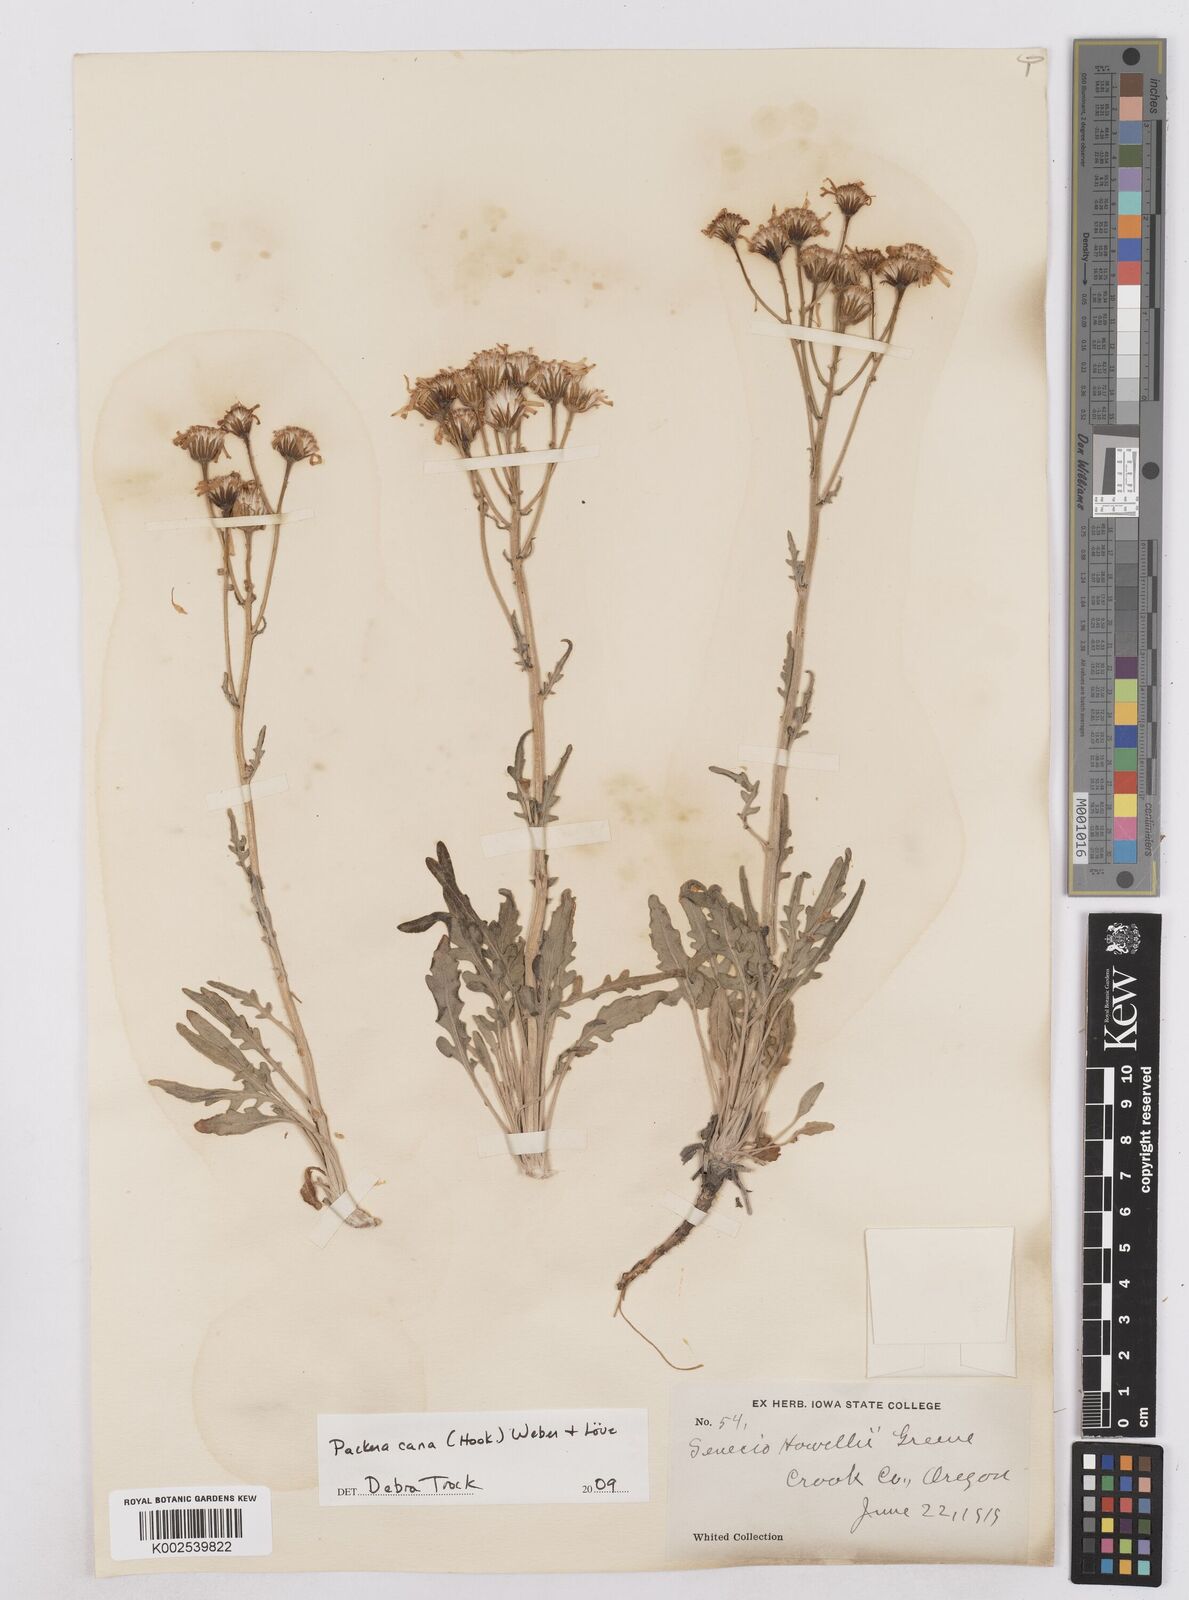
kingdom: Plantae
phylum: Tracheophyta
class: Magnoliopsida
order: Asterales
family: Asteraceae
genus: Packera
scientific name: Packera cana
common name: Woolly groundsel
